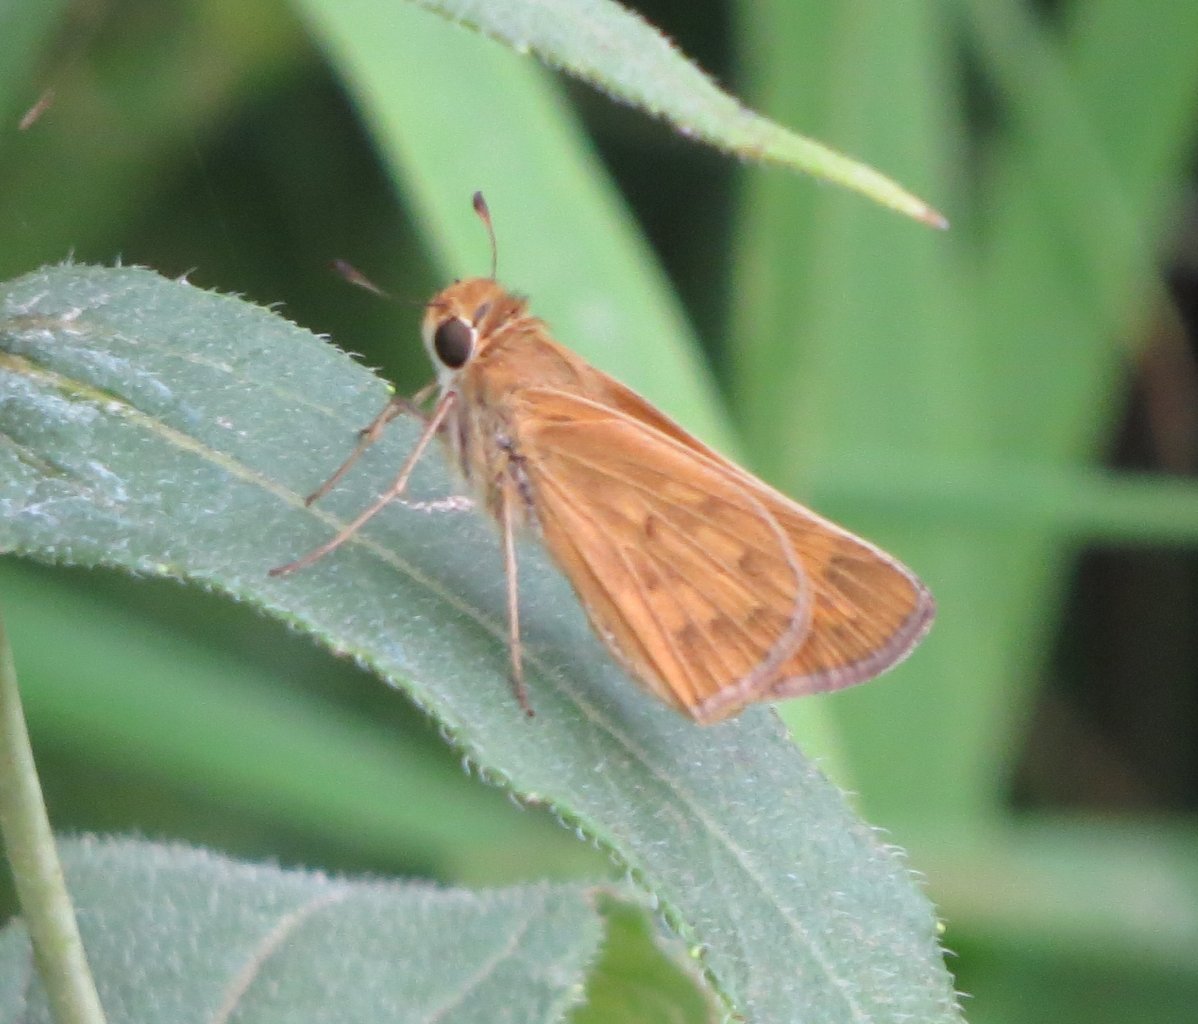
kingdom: Animalia
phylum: Arthropoda
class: Insecta
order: Lepidoptera
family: Hesperiidae
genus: Hylephila
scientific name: Hylephila phyleus
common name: Fiery Skipper
